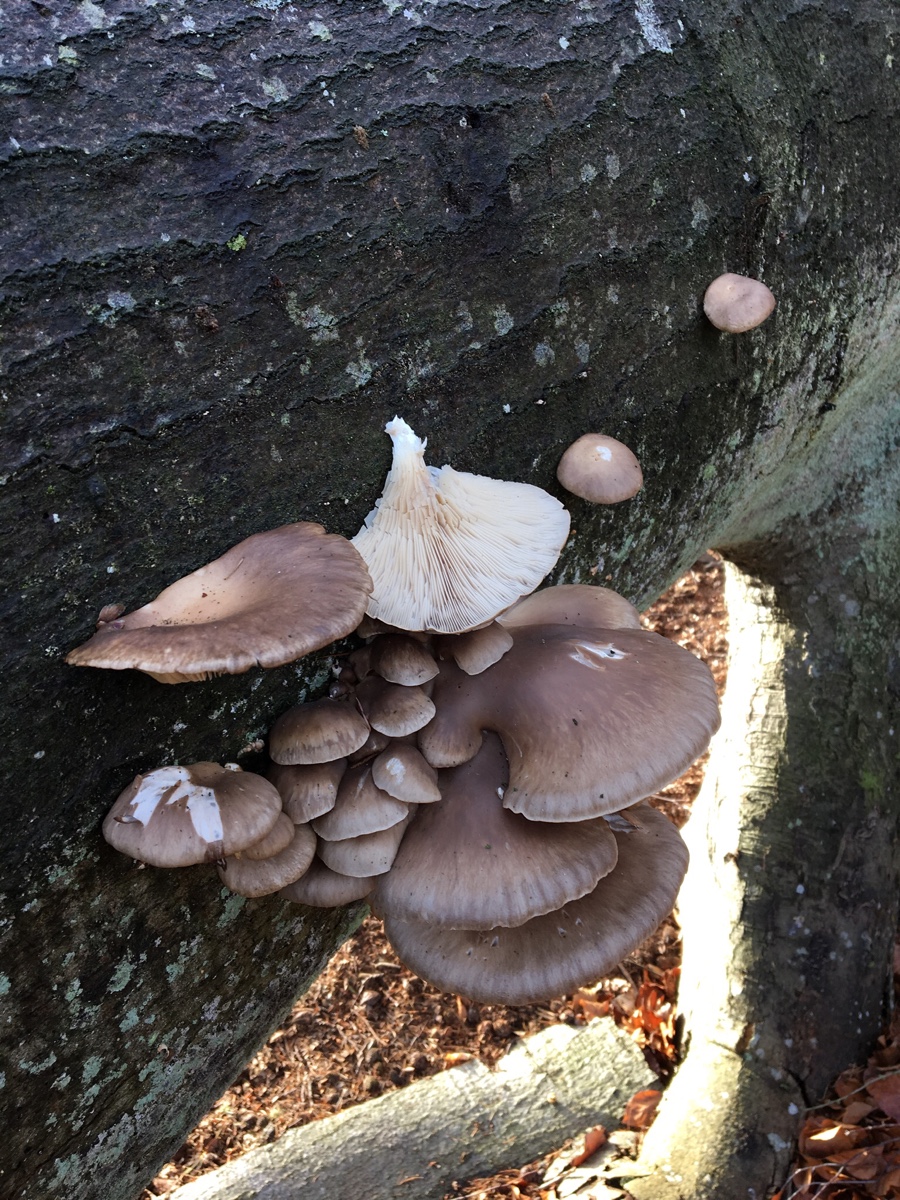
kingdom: Fungi
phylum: Basidiomycota
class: Agaricomycetes
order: Agaricales
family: Pleurotaceae
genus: Pleurotus
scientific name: Pleurotus ostreatus
